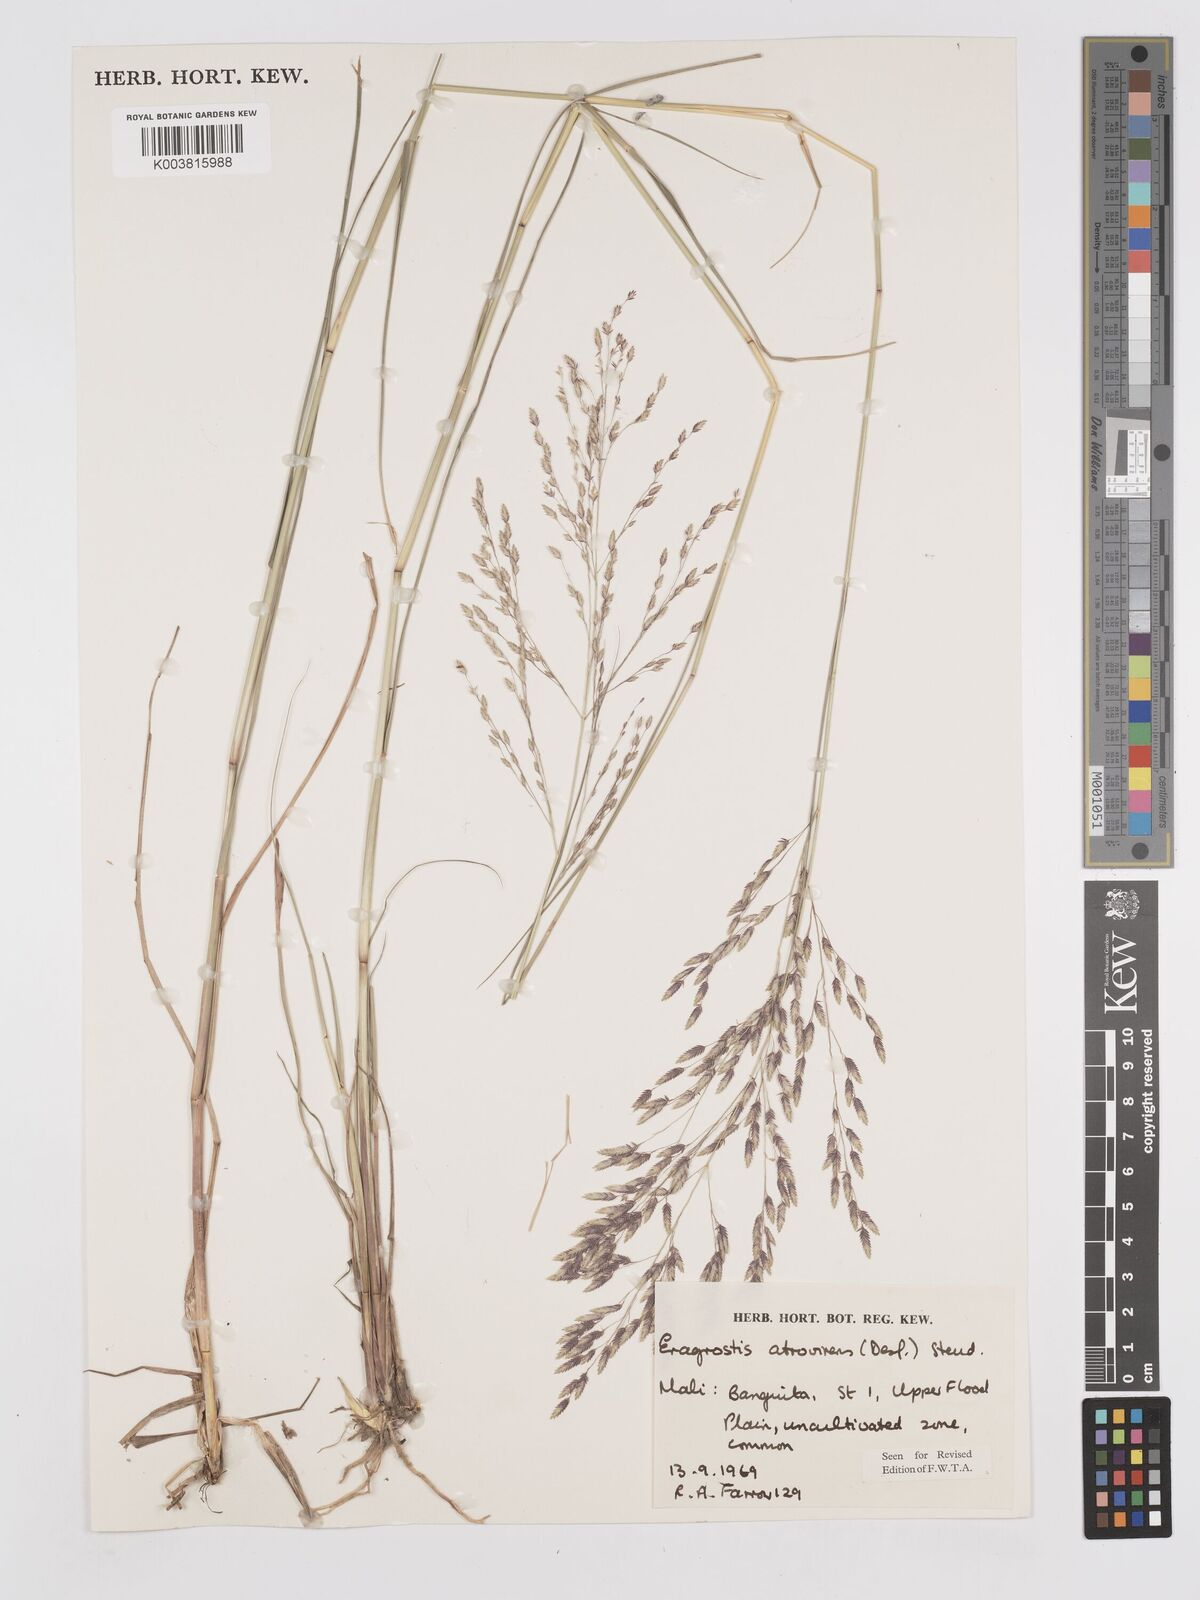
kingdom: Plantae
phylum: Tracheophyta
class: Liliopsida
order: Poales
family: Poaceae
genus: Eragrostis
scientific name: Eragrostis atrovirens
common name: Thalia lovegrass
